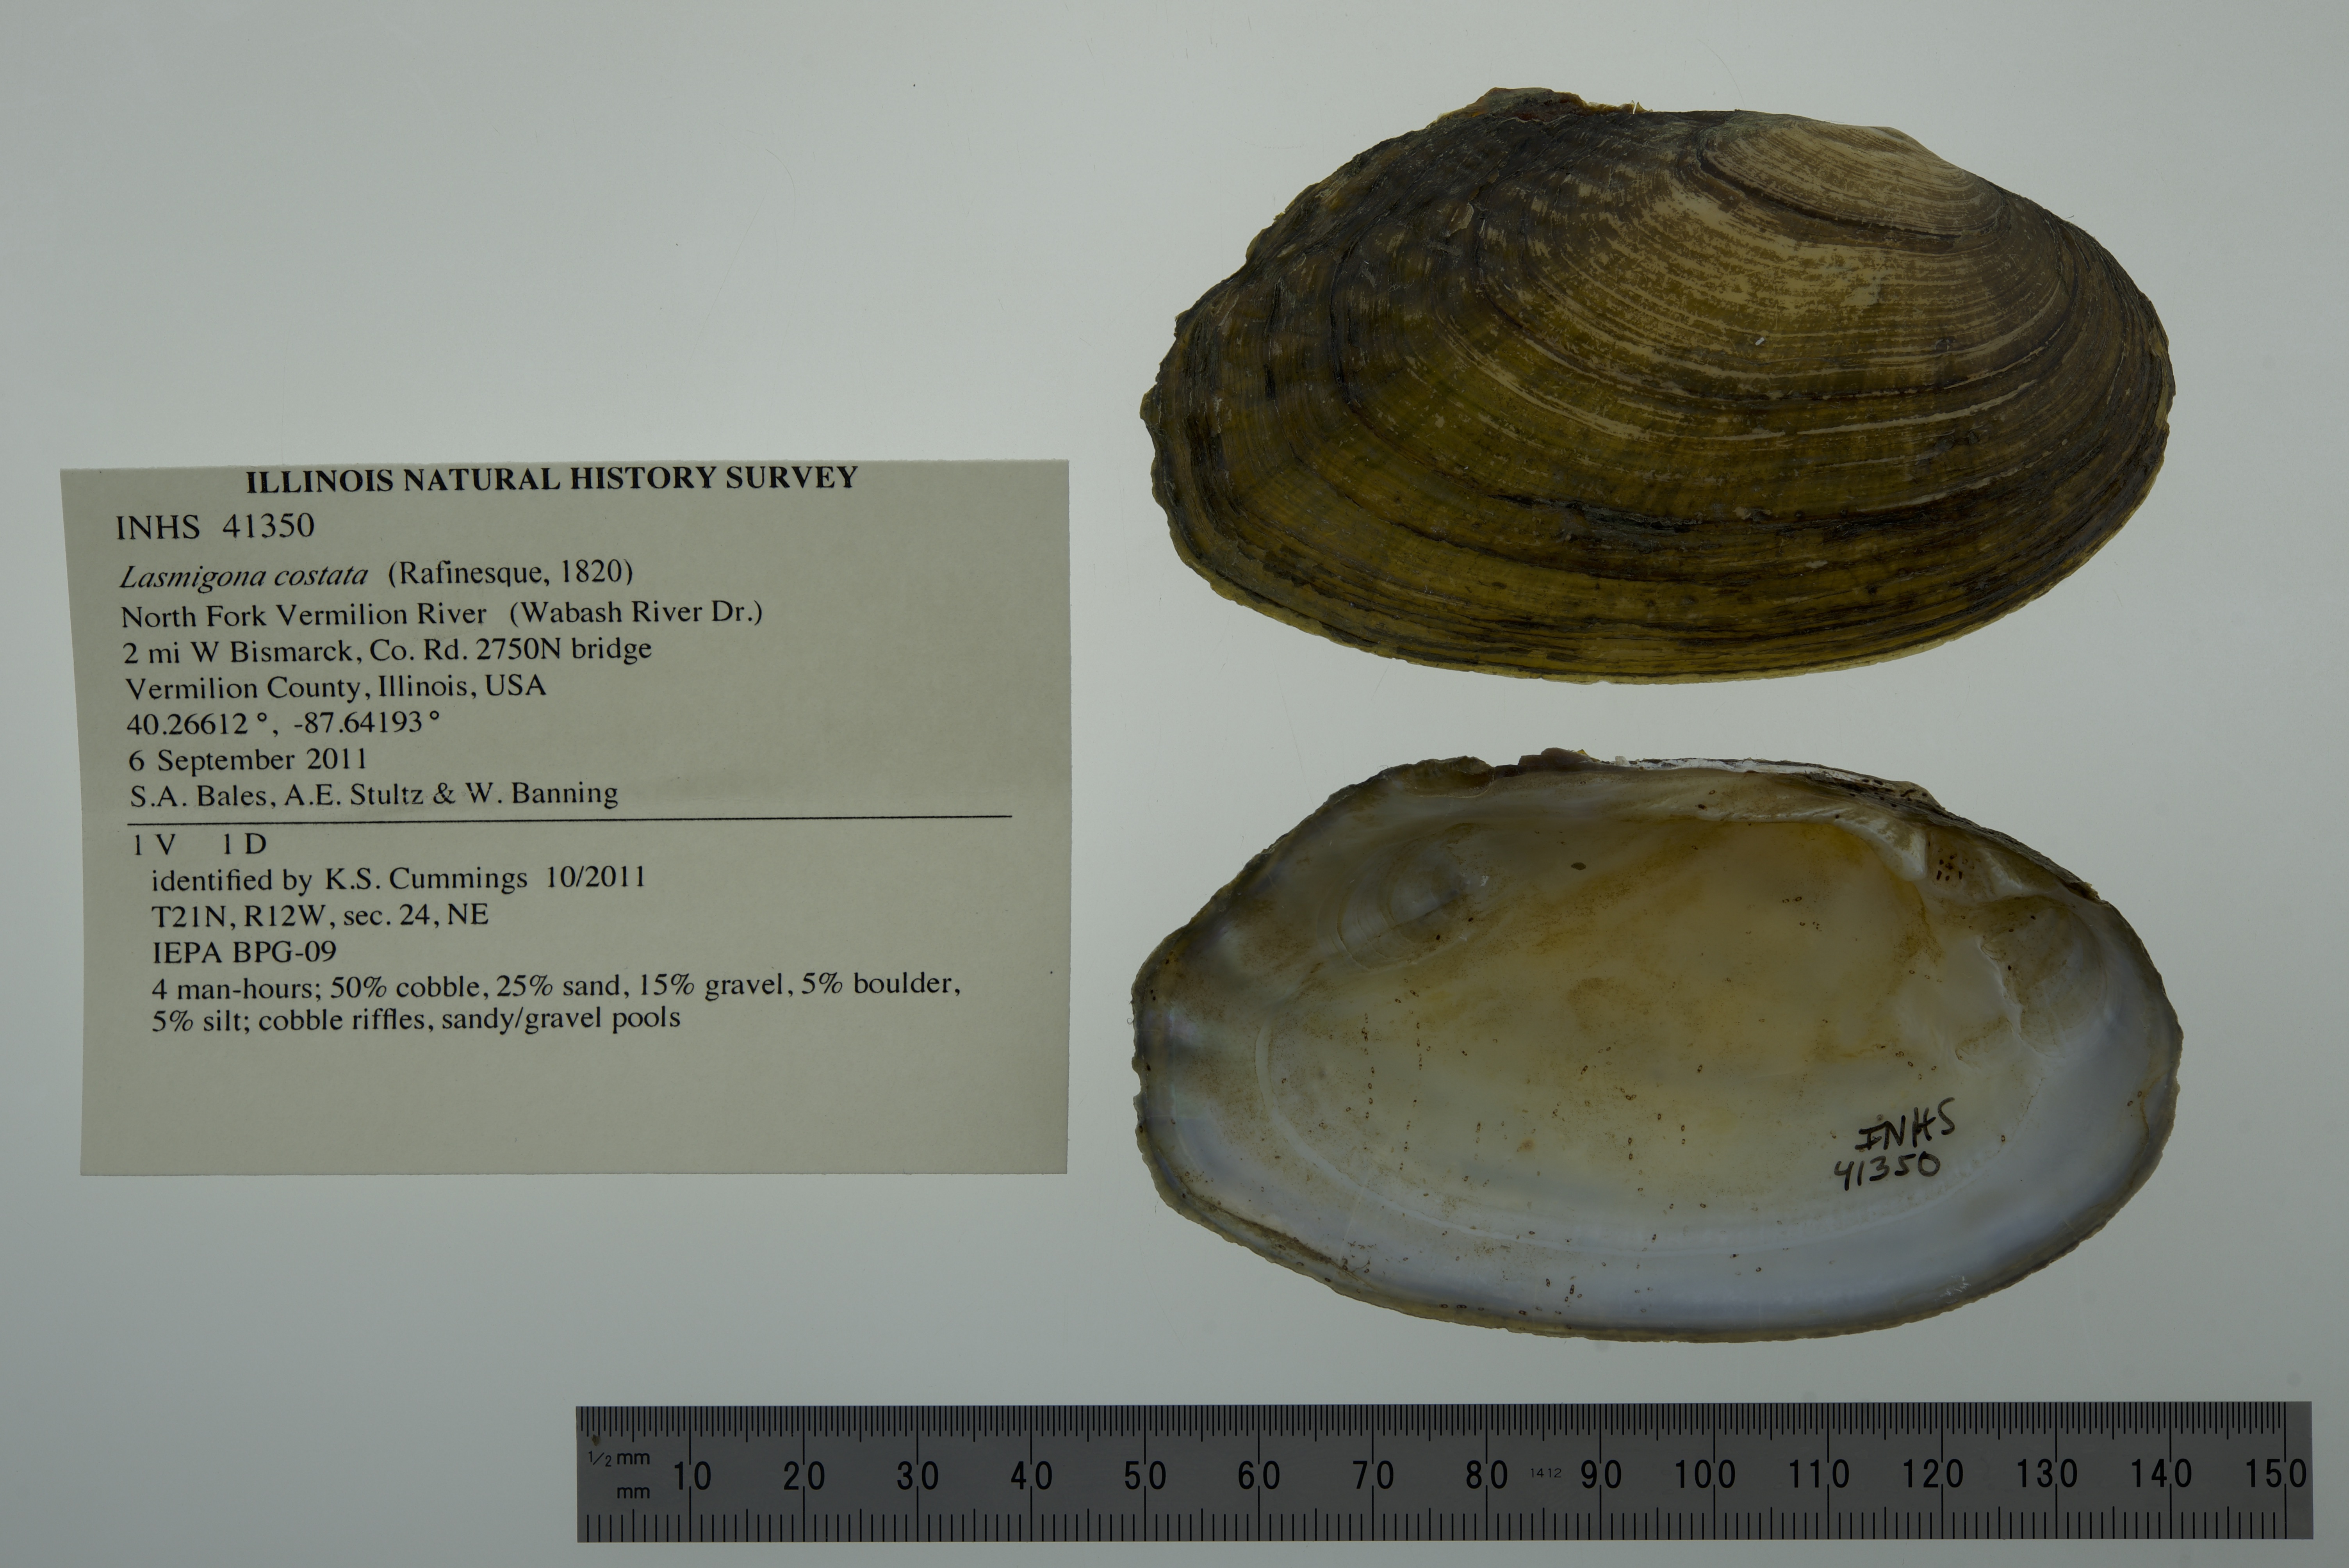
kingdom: Animalia
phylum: Mollusca
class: Bivalvia
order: Unionida
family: Unionidae
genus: Lasmigona
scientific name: Lasmigona costata
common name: Flutedshell
